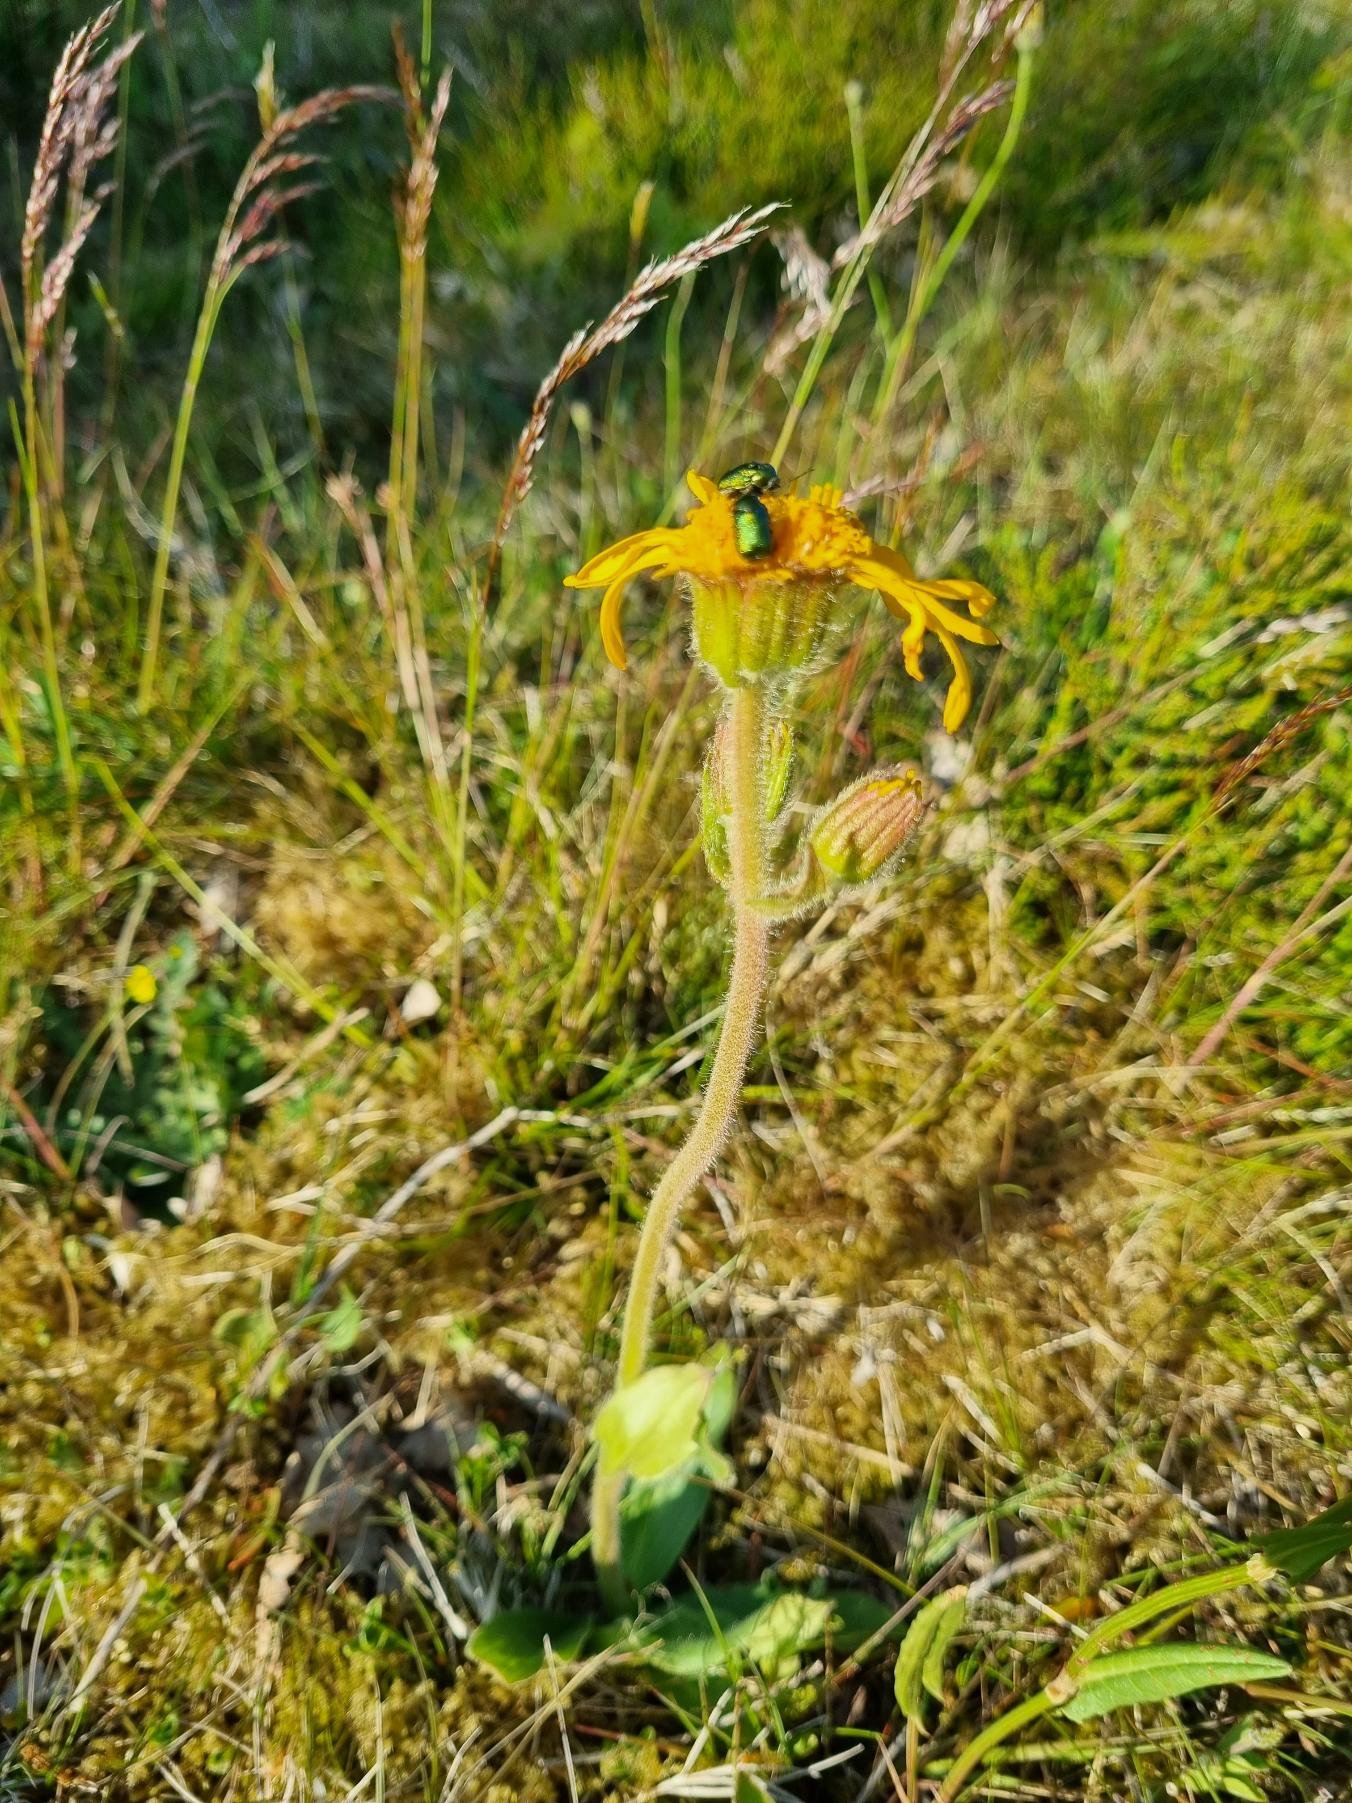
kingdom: Plantae
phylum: Tracheophyta
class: Magnoliopsida
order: Asterales
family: Asteraceae
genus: Arnica
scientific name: Arnica montana
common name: Guldblomme
